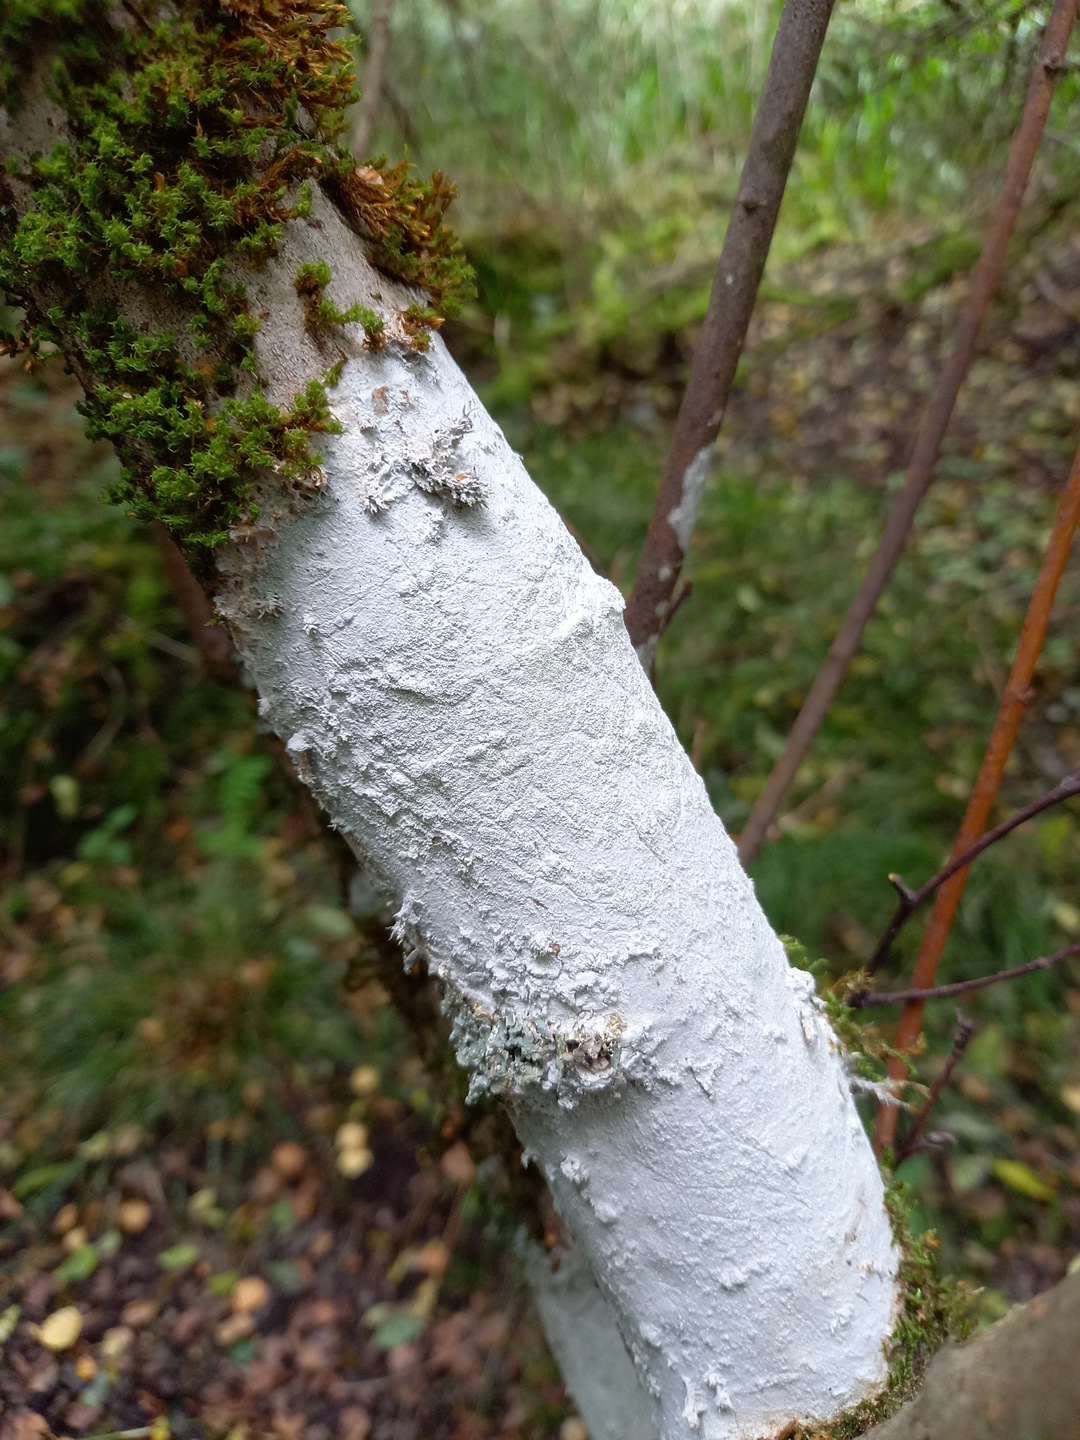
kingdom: Fungi
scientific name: Fungi
